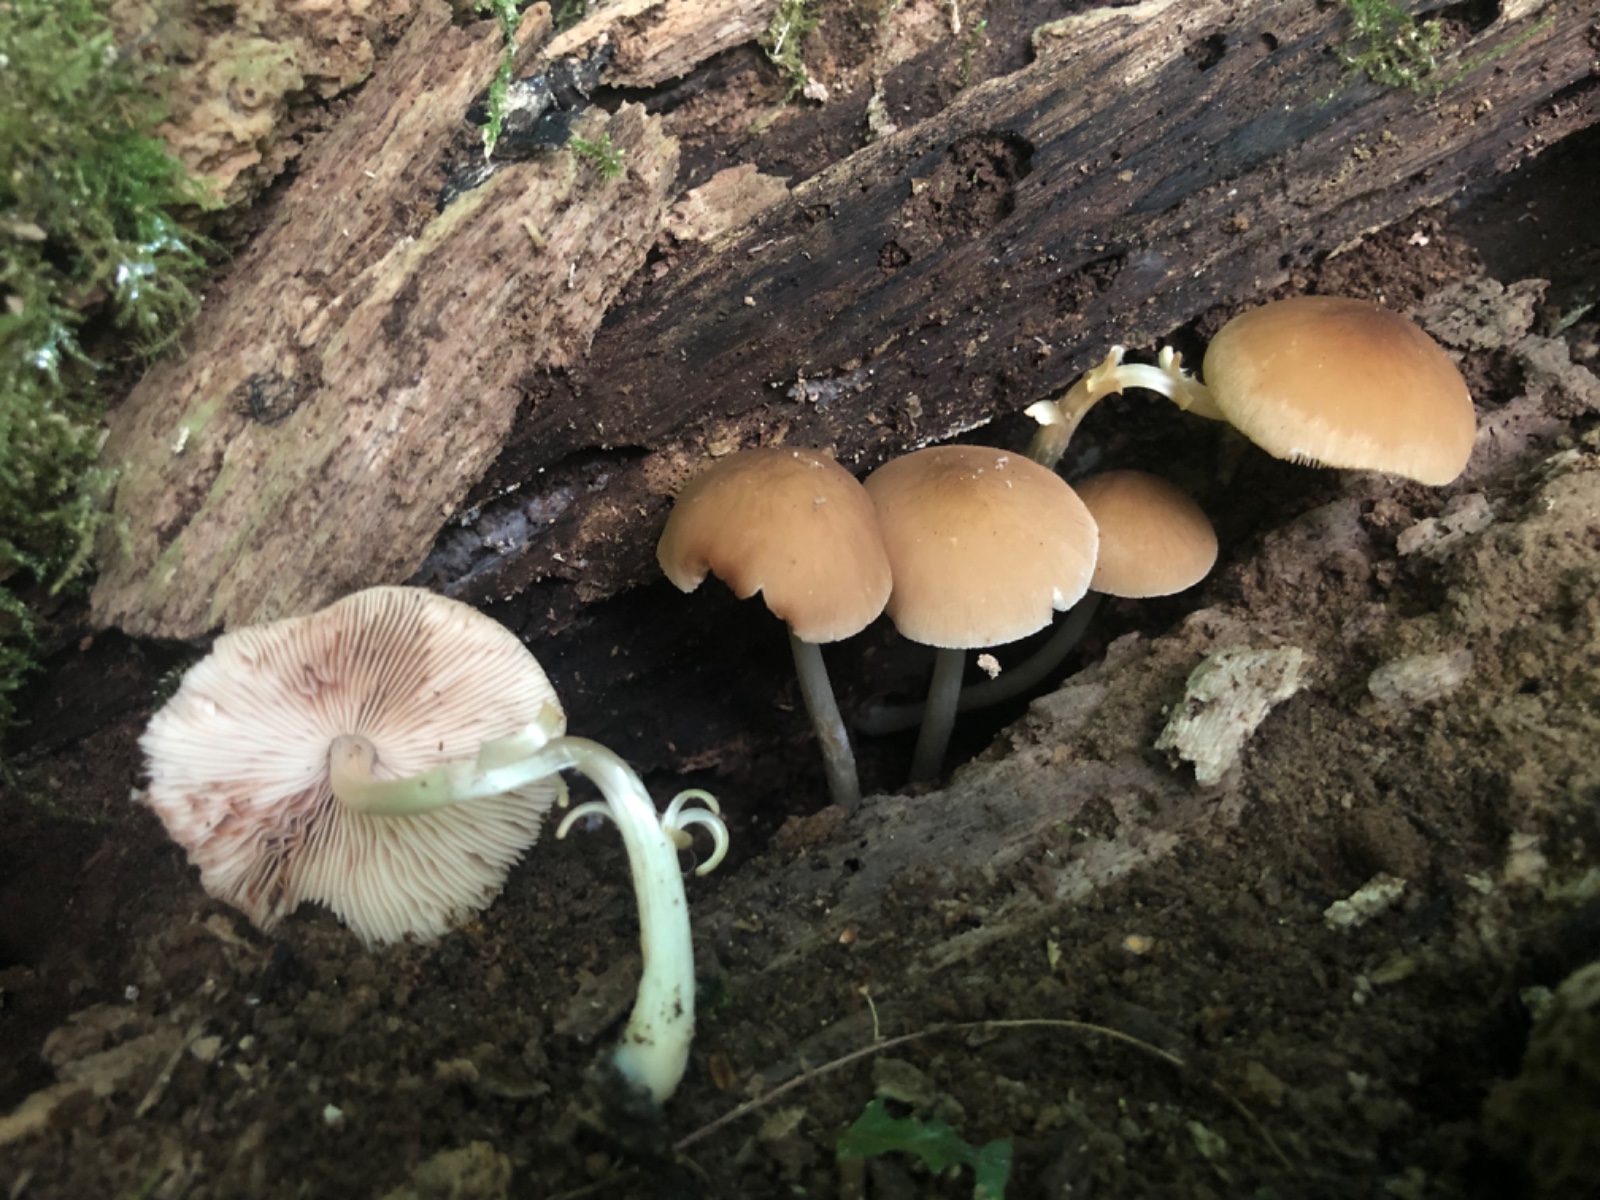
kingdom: Fungi
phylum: Basidiomycota
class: Agaricomycetes
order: Agaricales
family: Pluteaceae
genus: Pluteus
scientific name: Pluteus phlebophorus
